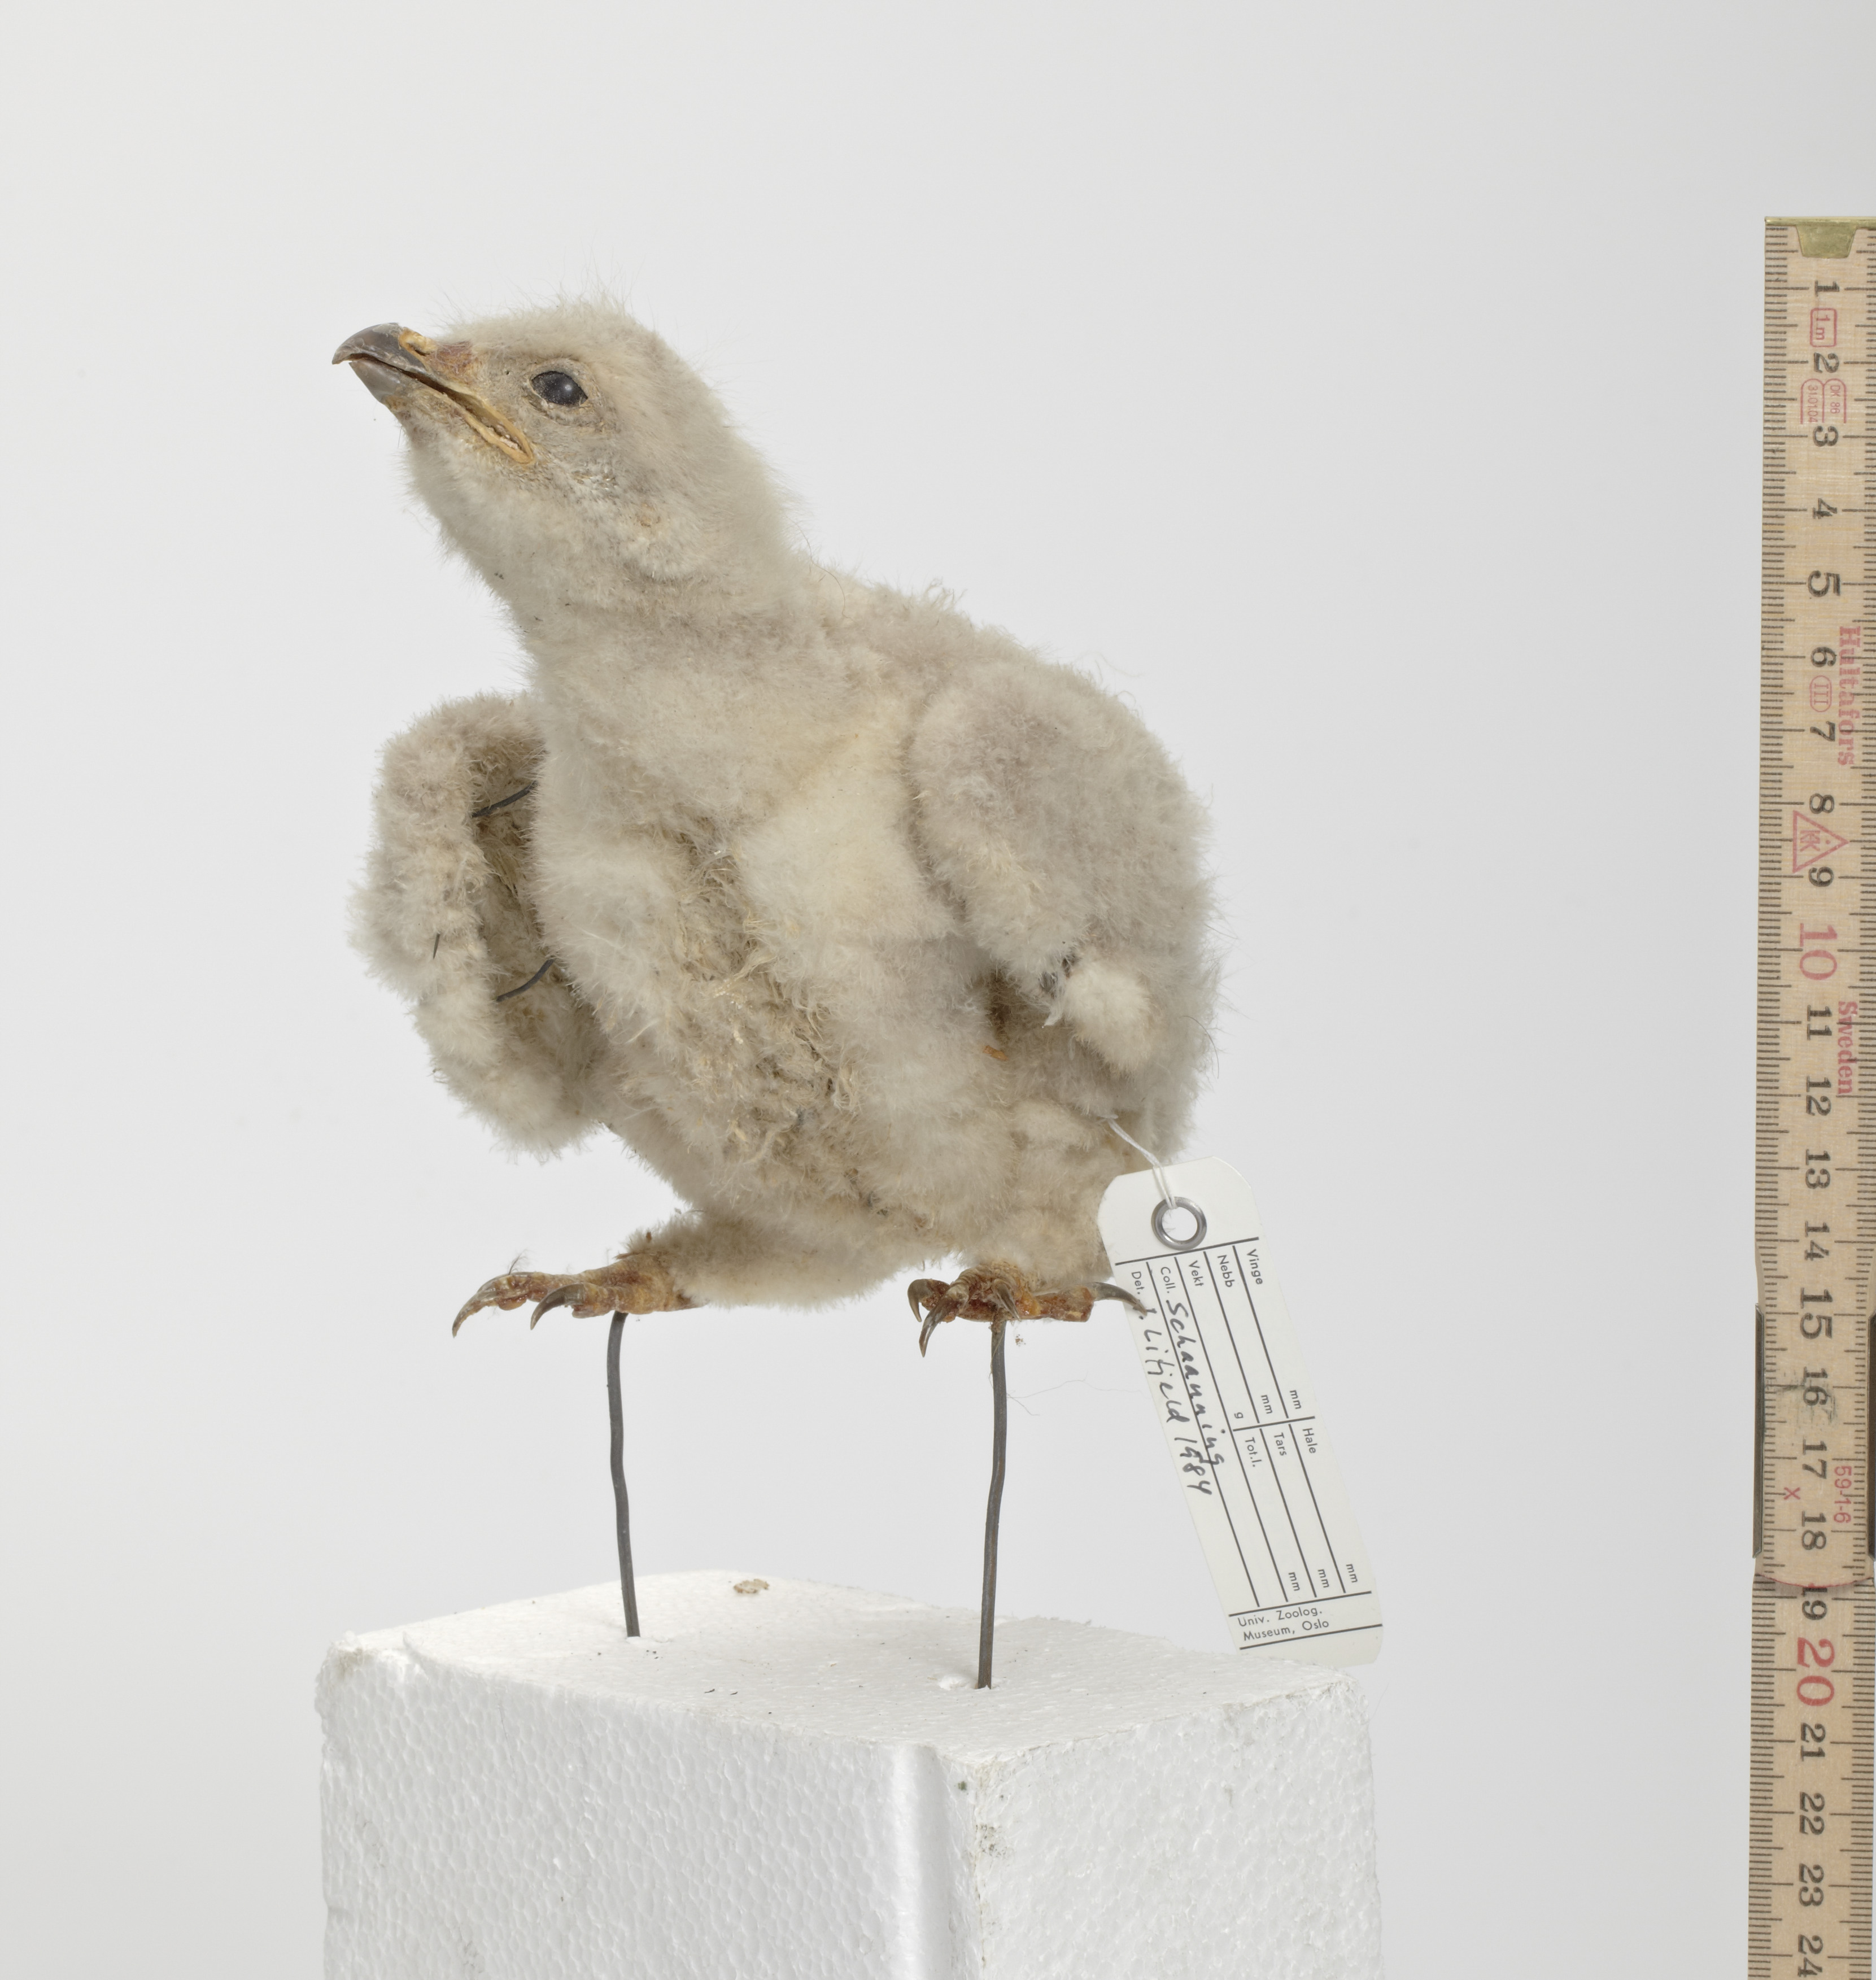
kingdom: Animalia
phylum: Chordata
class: Aves
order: Accipitriformes
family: Accipitridae
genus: Buteo
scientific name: Buteo lagopus
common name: Rough-legged buzzard
